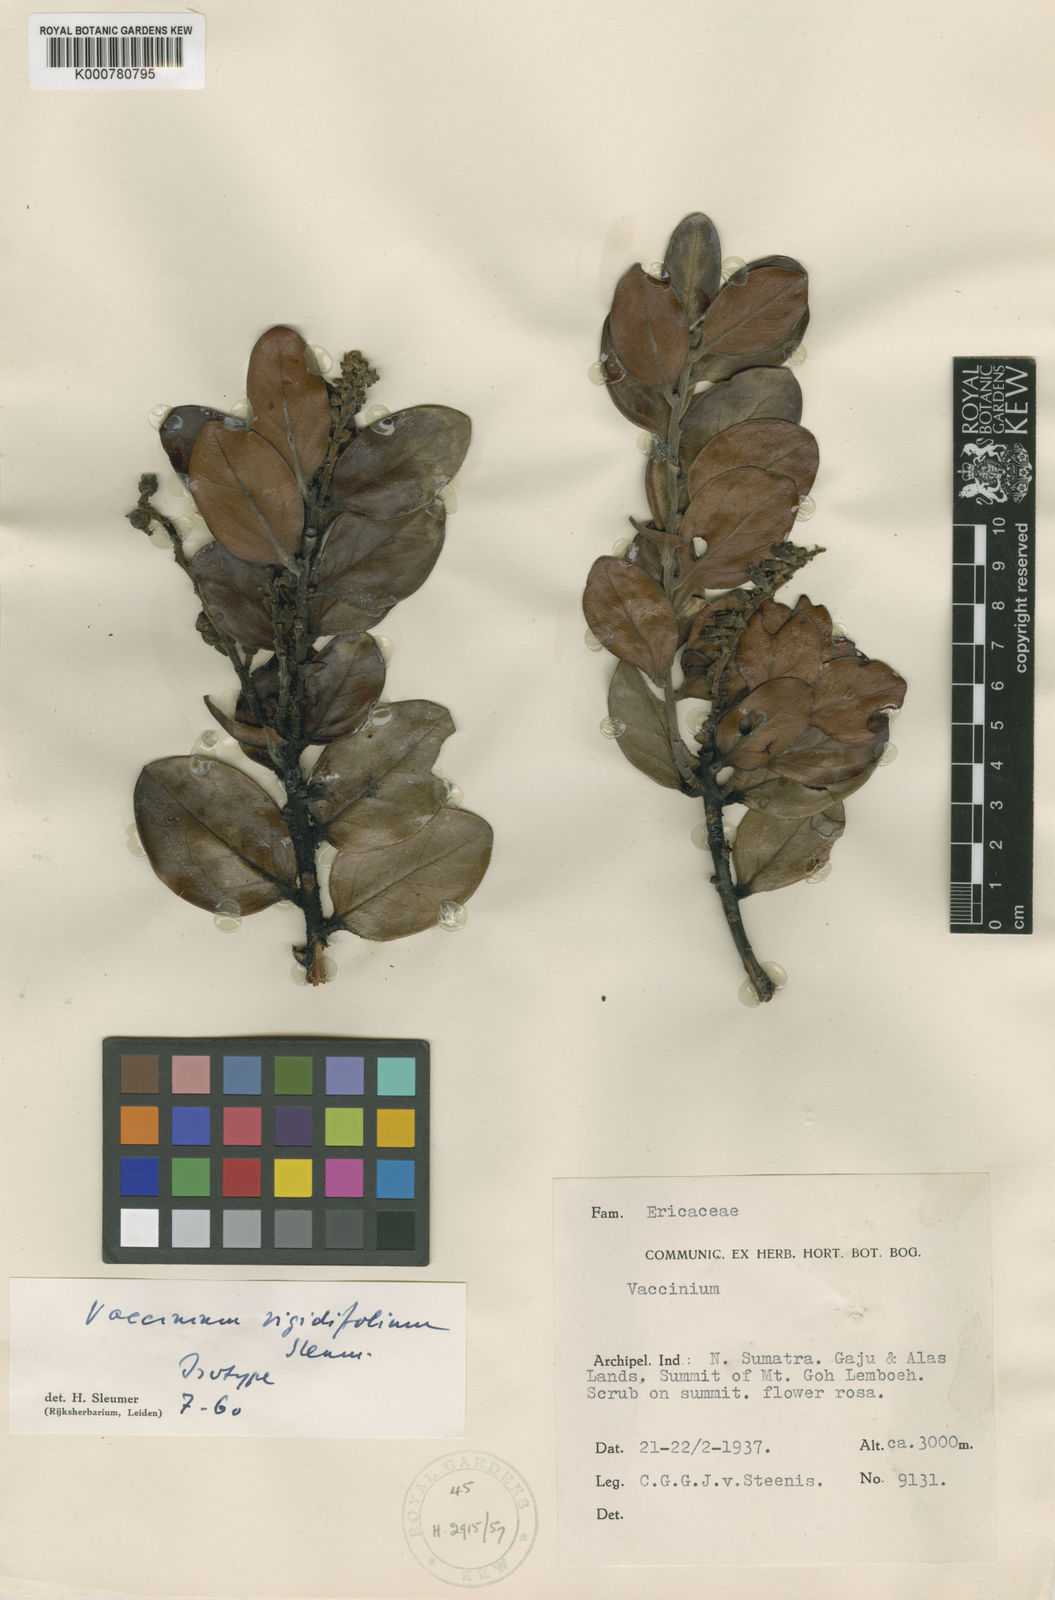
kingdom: Plantae
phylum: Tracheophyta
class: Magnoliopsida
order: Ericales
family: Ericaceae
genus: Vaccinium
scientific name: Vaccinium rigidifolium
